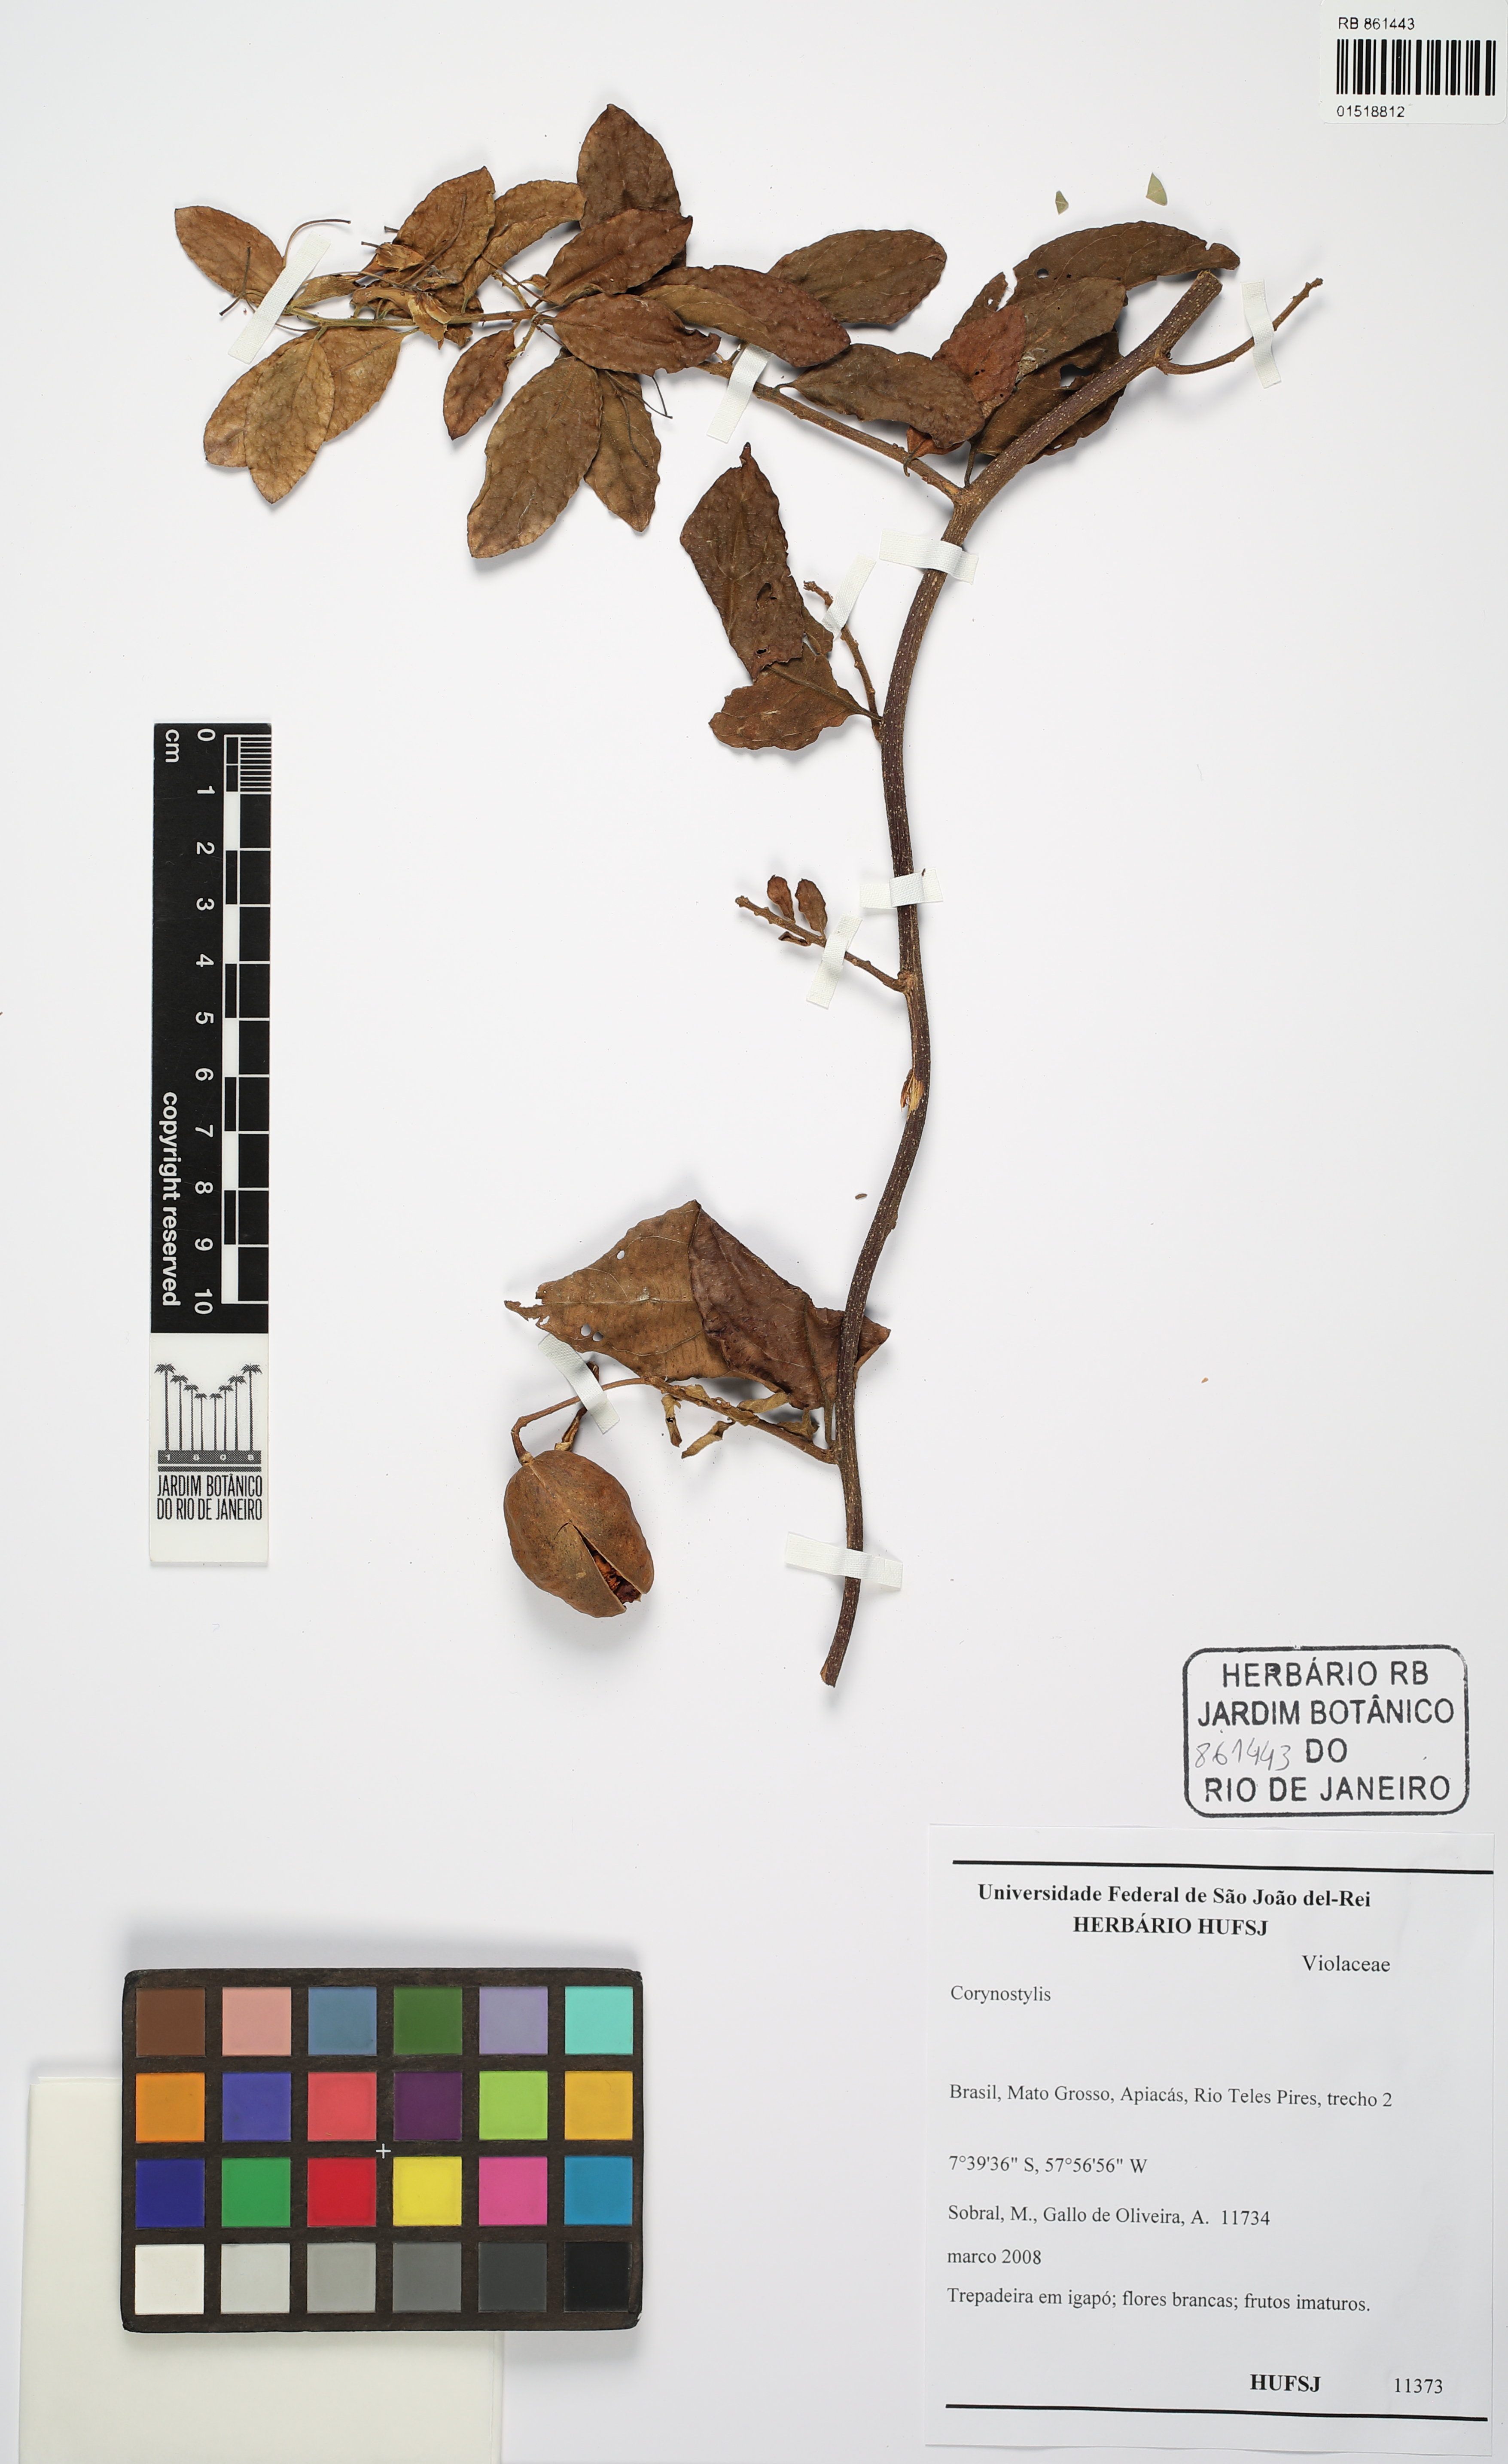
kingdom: Plantae
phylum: Tracheophyta
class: Magnoliopsida
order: Malpighiales
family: Violaceae
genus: Calyptrion
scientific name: Calyptrion
